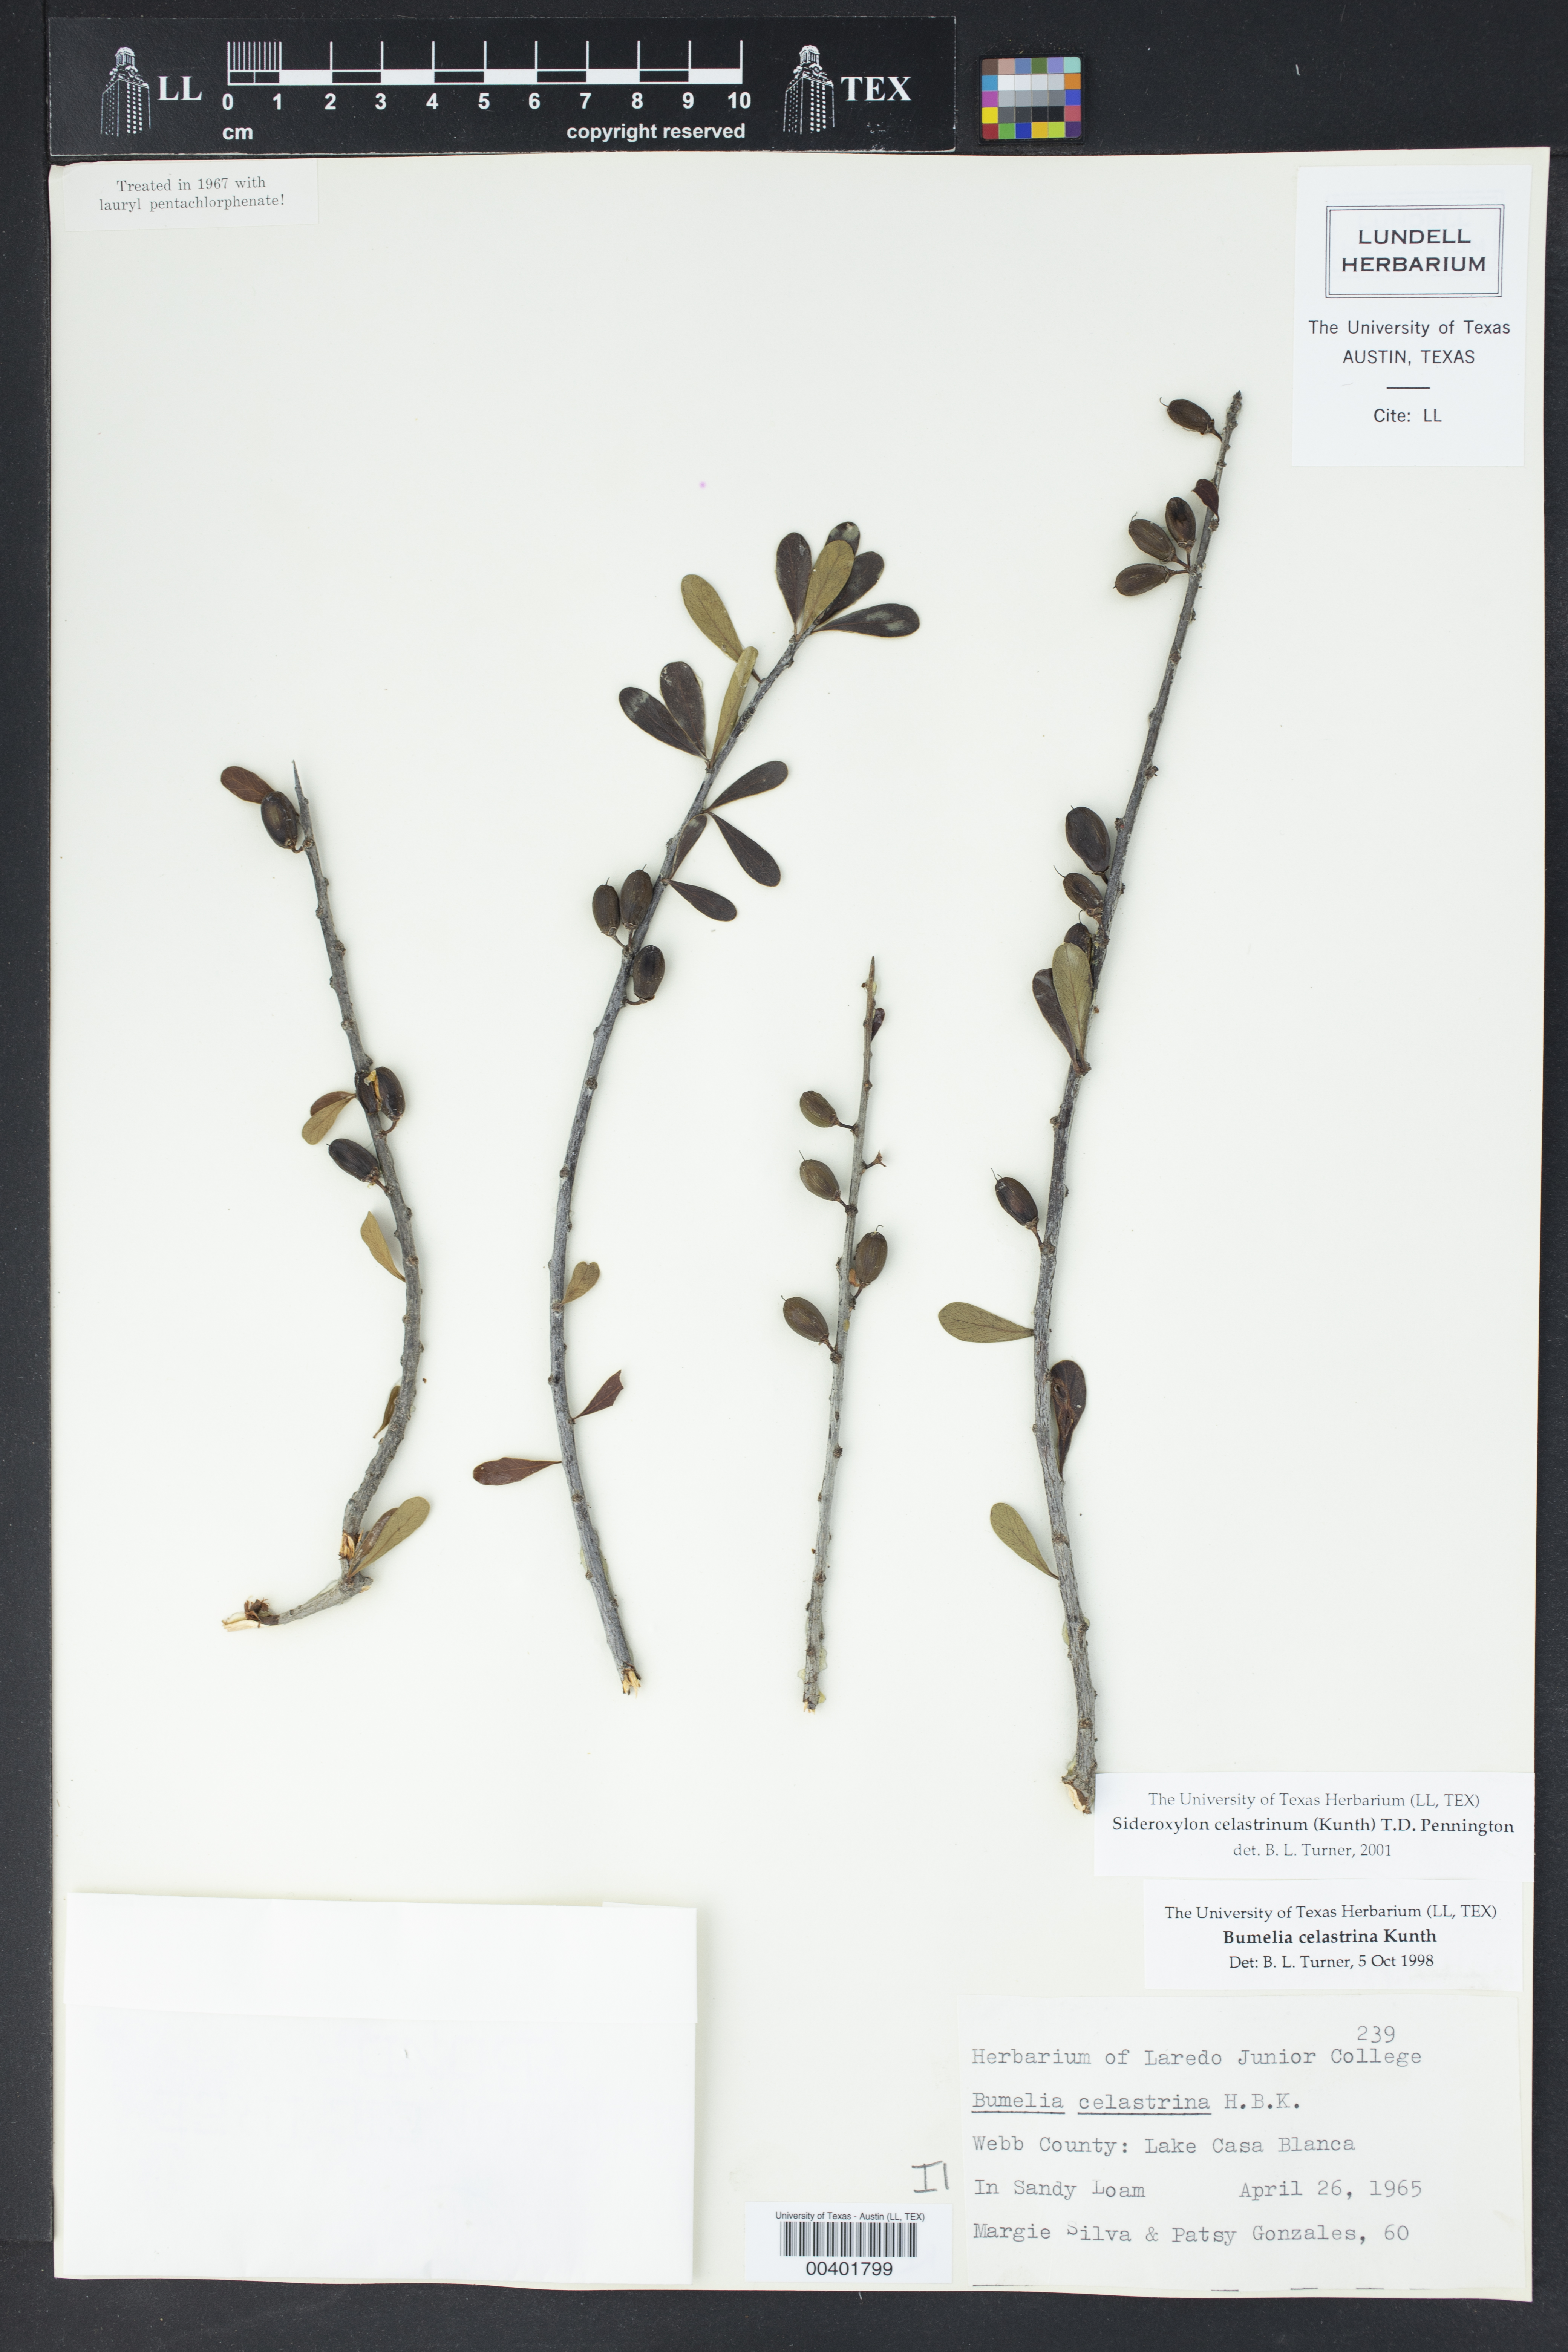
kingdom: Plantae
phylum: Tracheophyta
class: Magnoliopsida
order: Ericales
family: Sapotaceae
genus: Sideroxylon
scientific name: Sideroxylon celastrinum
